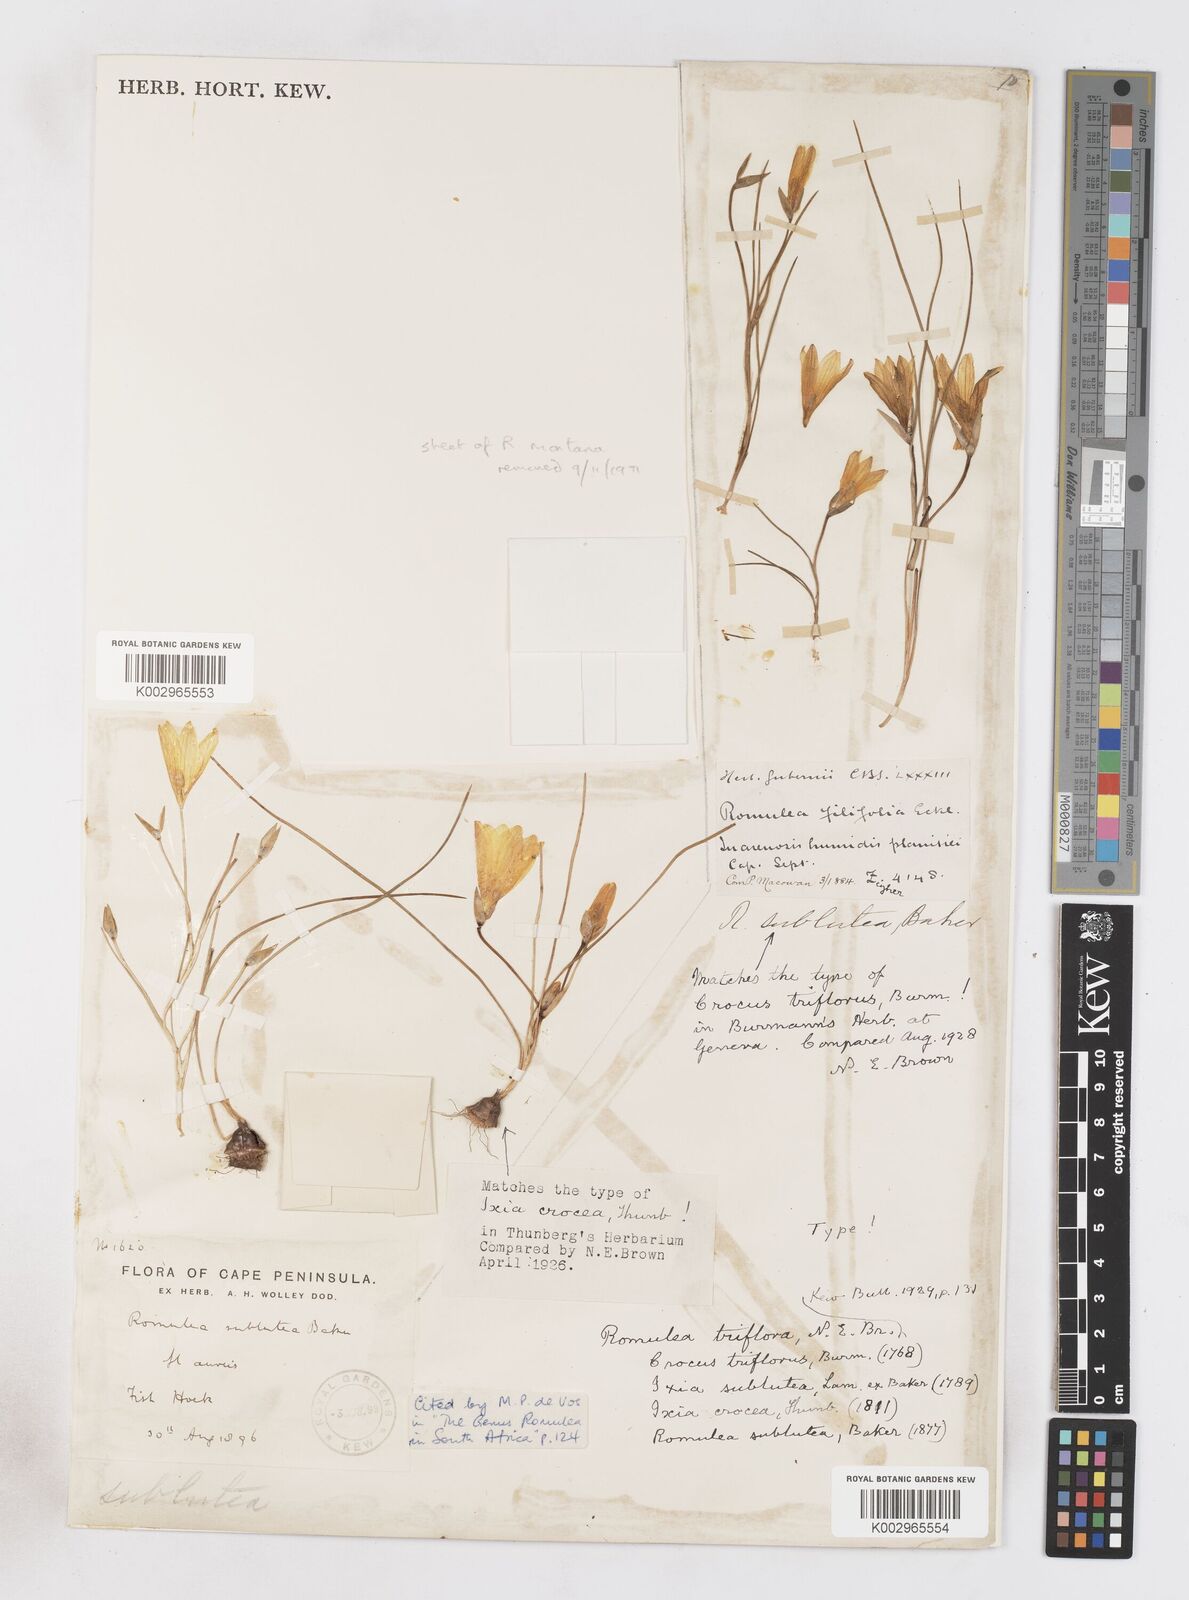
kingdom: Plantae
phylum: Tracheophyta
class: Liliopsida
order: Asparagales
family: Iridaceae
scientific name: Iridaceae
